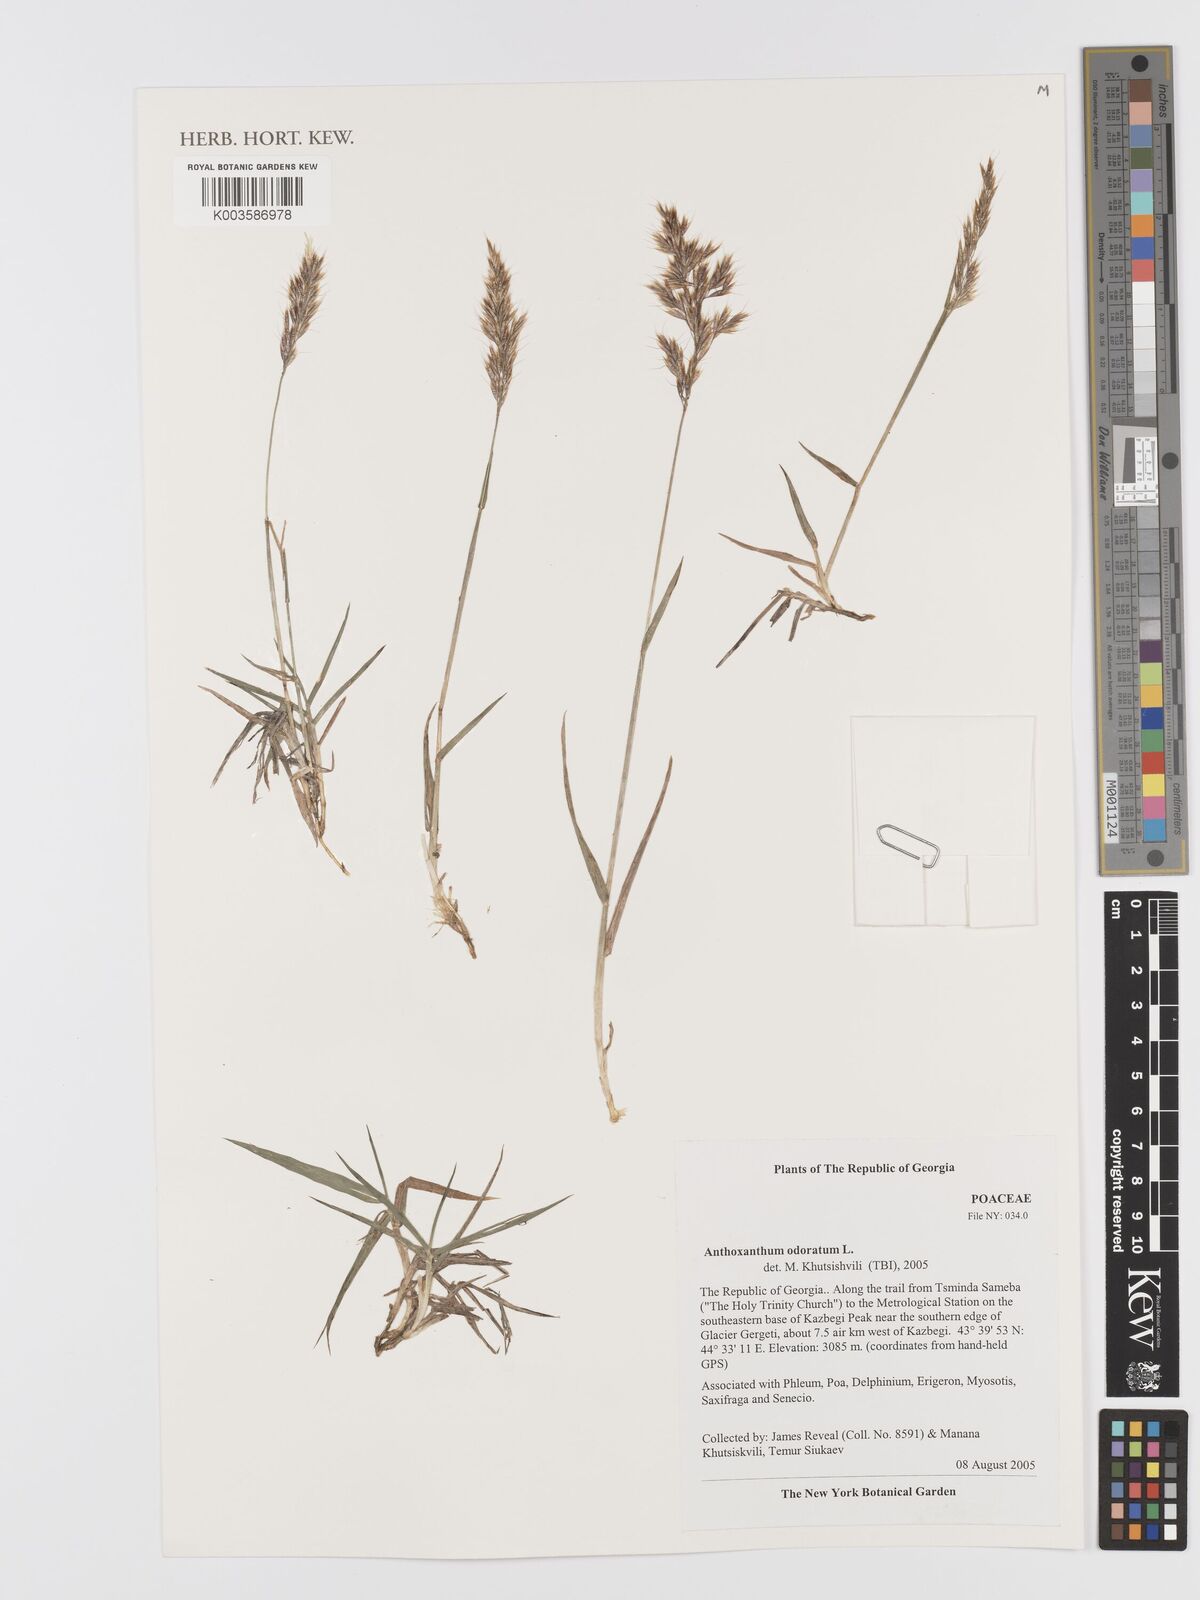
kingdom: Plantae
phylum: Tracheophyta
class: Liliopsida
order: Poales
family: Poaceae
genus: Anthoxanthum
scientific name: Anthoxanthum odoratum
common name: Sweet vernalgrass
